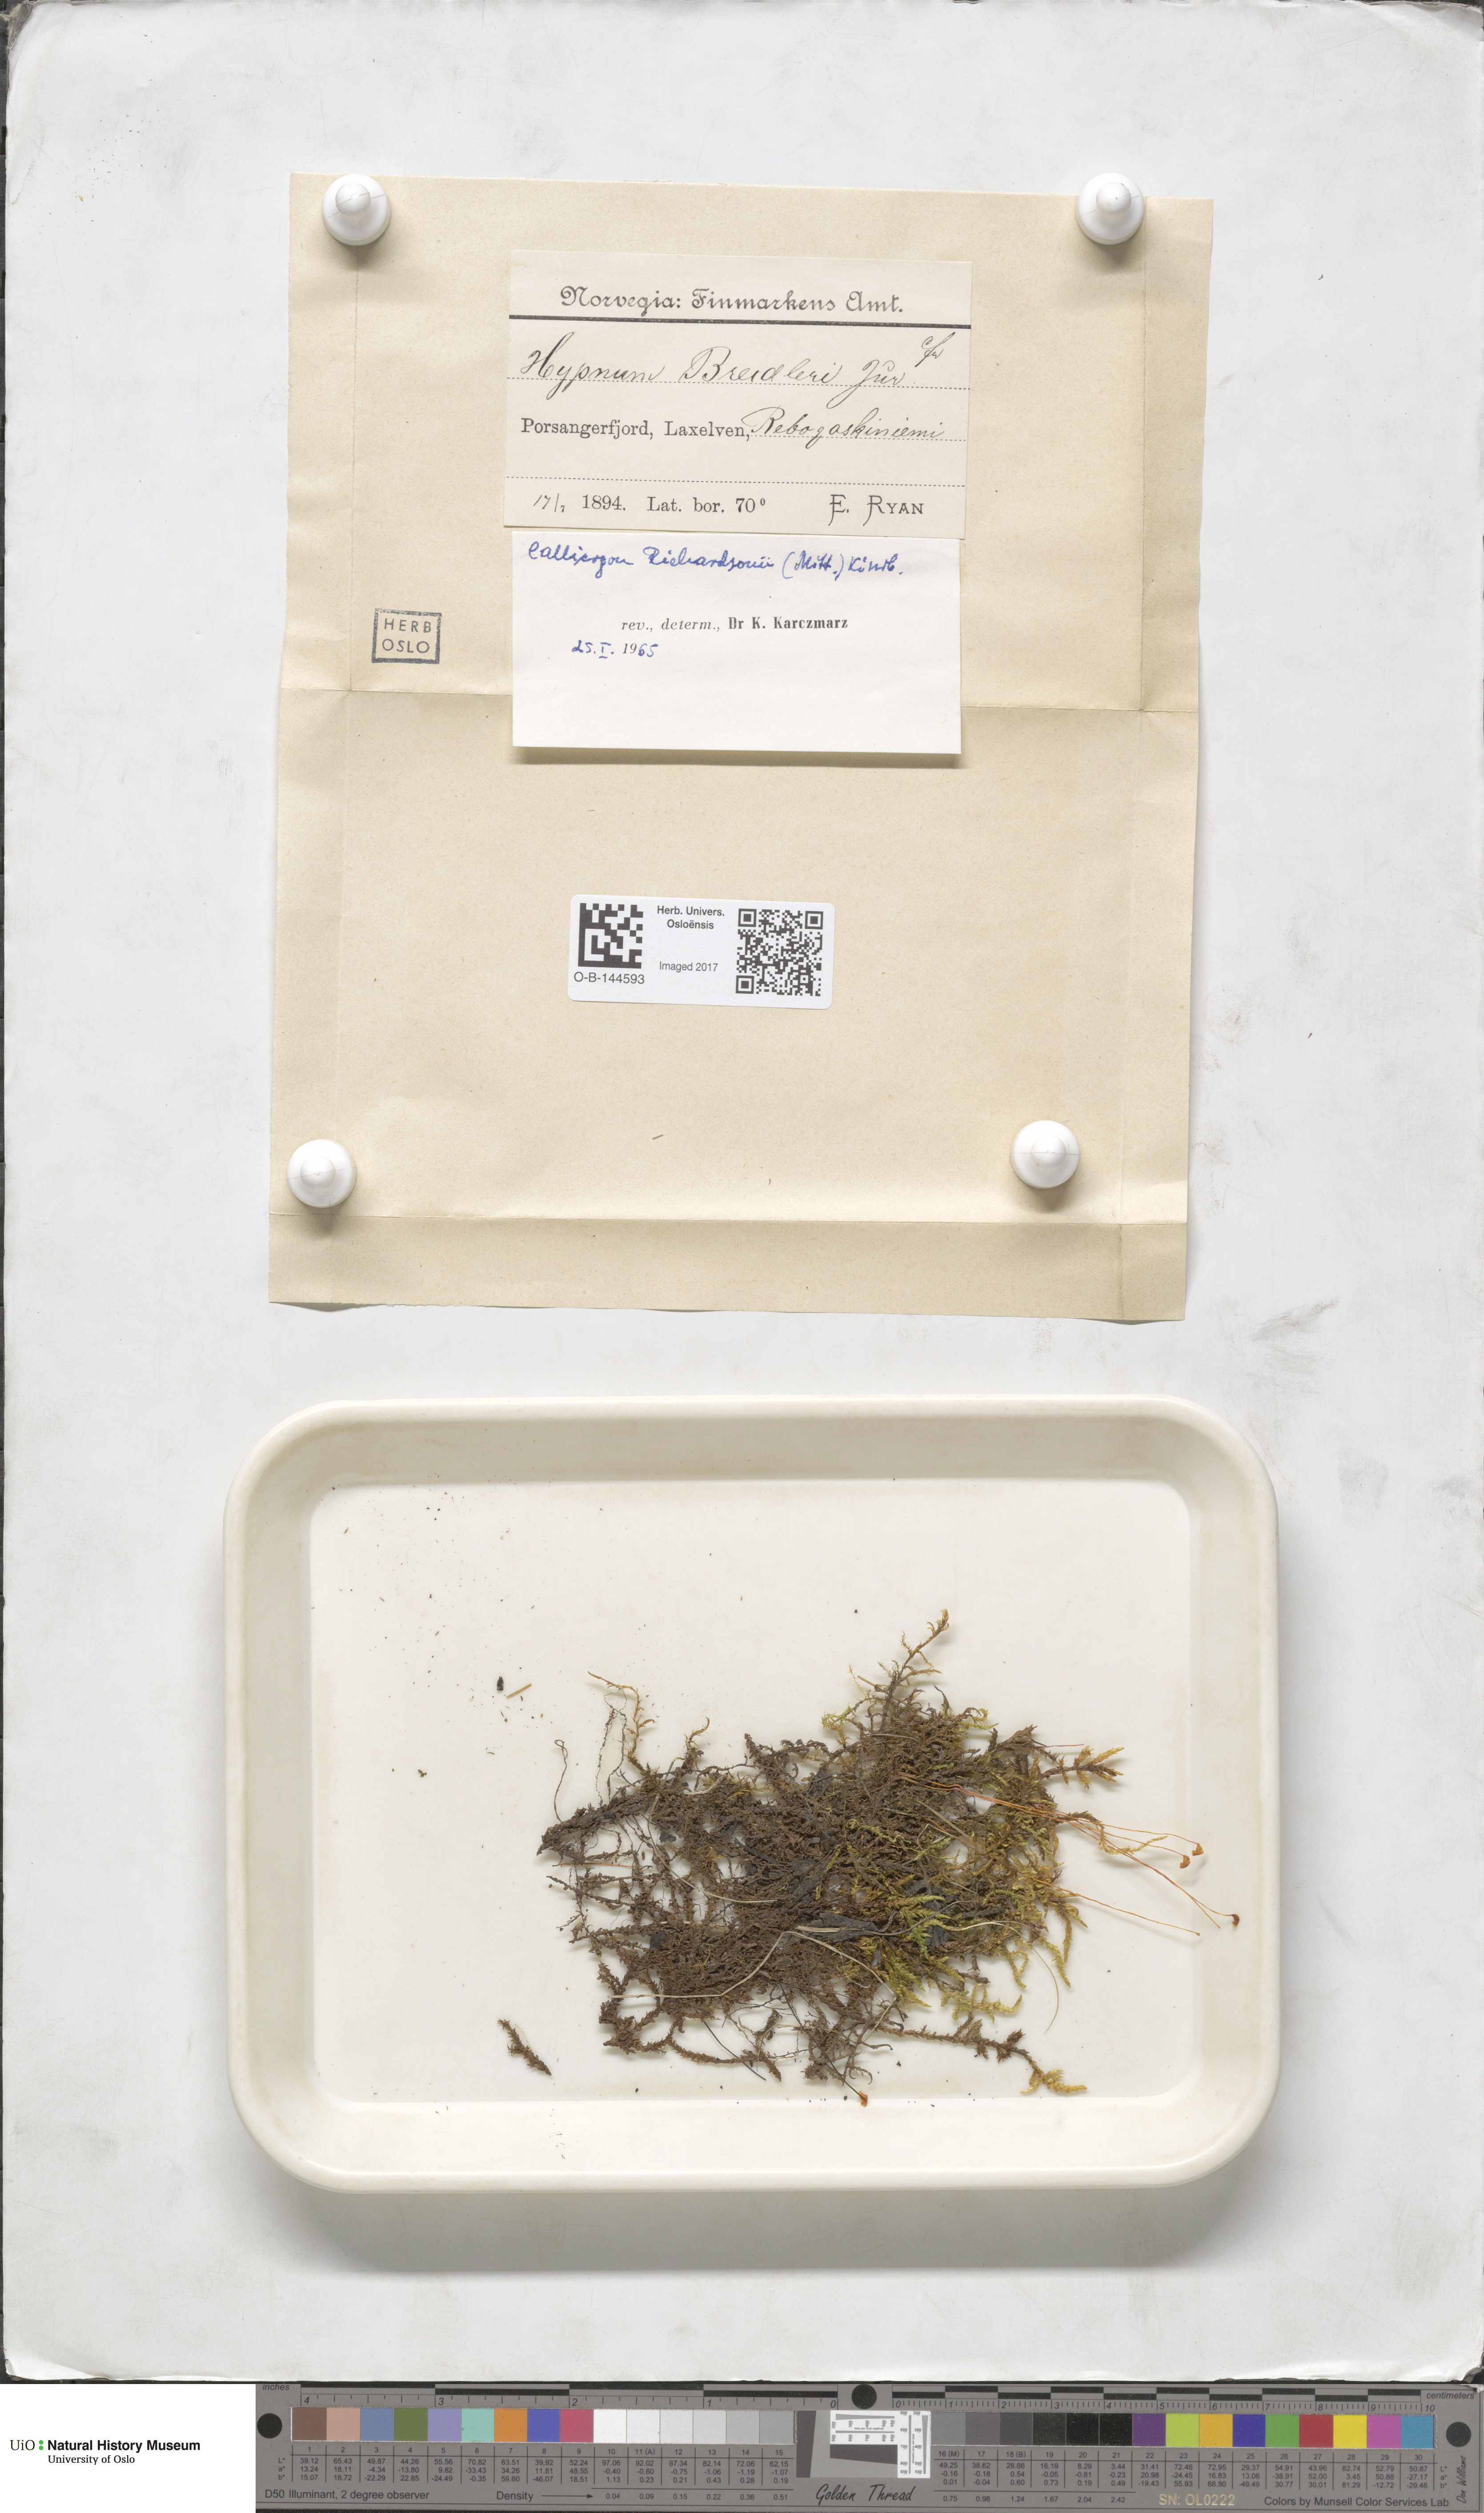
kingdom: Plantae
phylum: Bryophyta
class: Bryopsida
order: Hypnales
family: Calliergonaceae
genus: Calliergon
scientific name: Calliergon richardsonii
